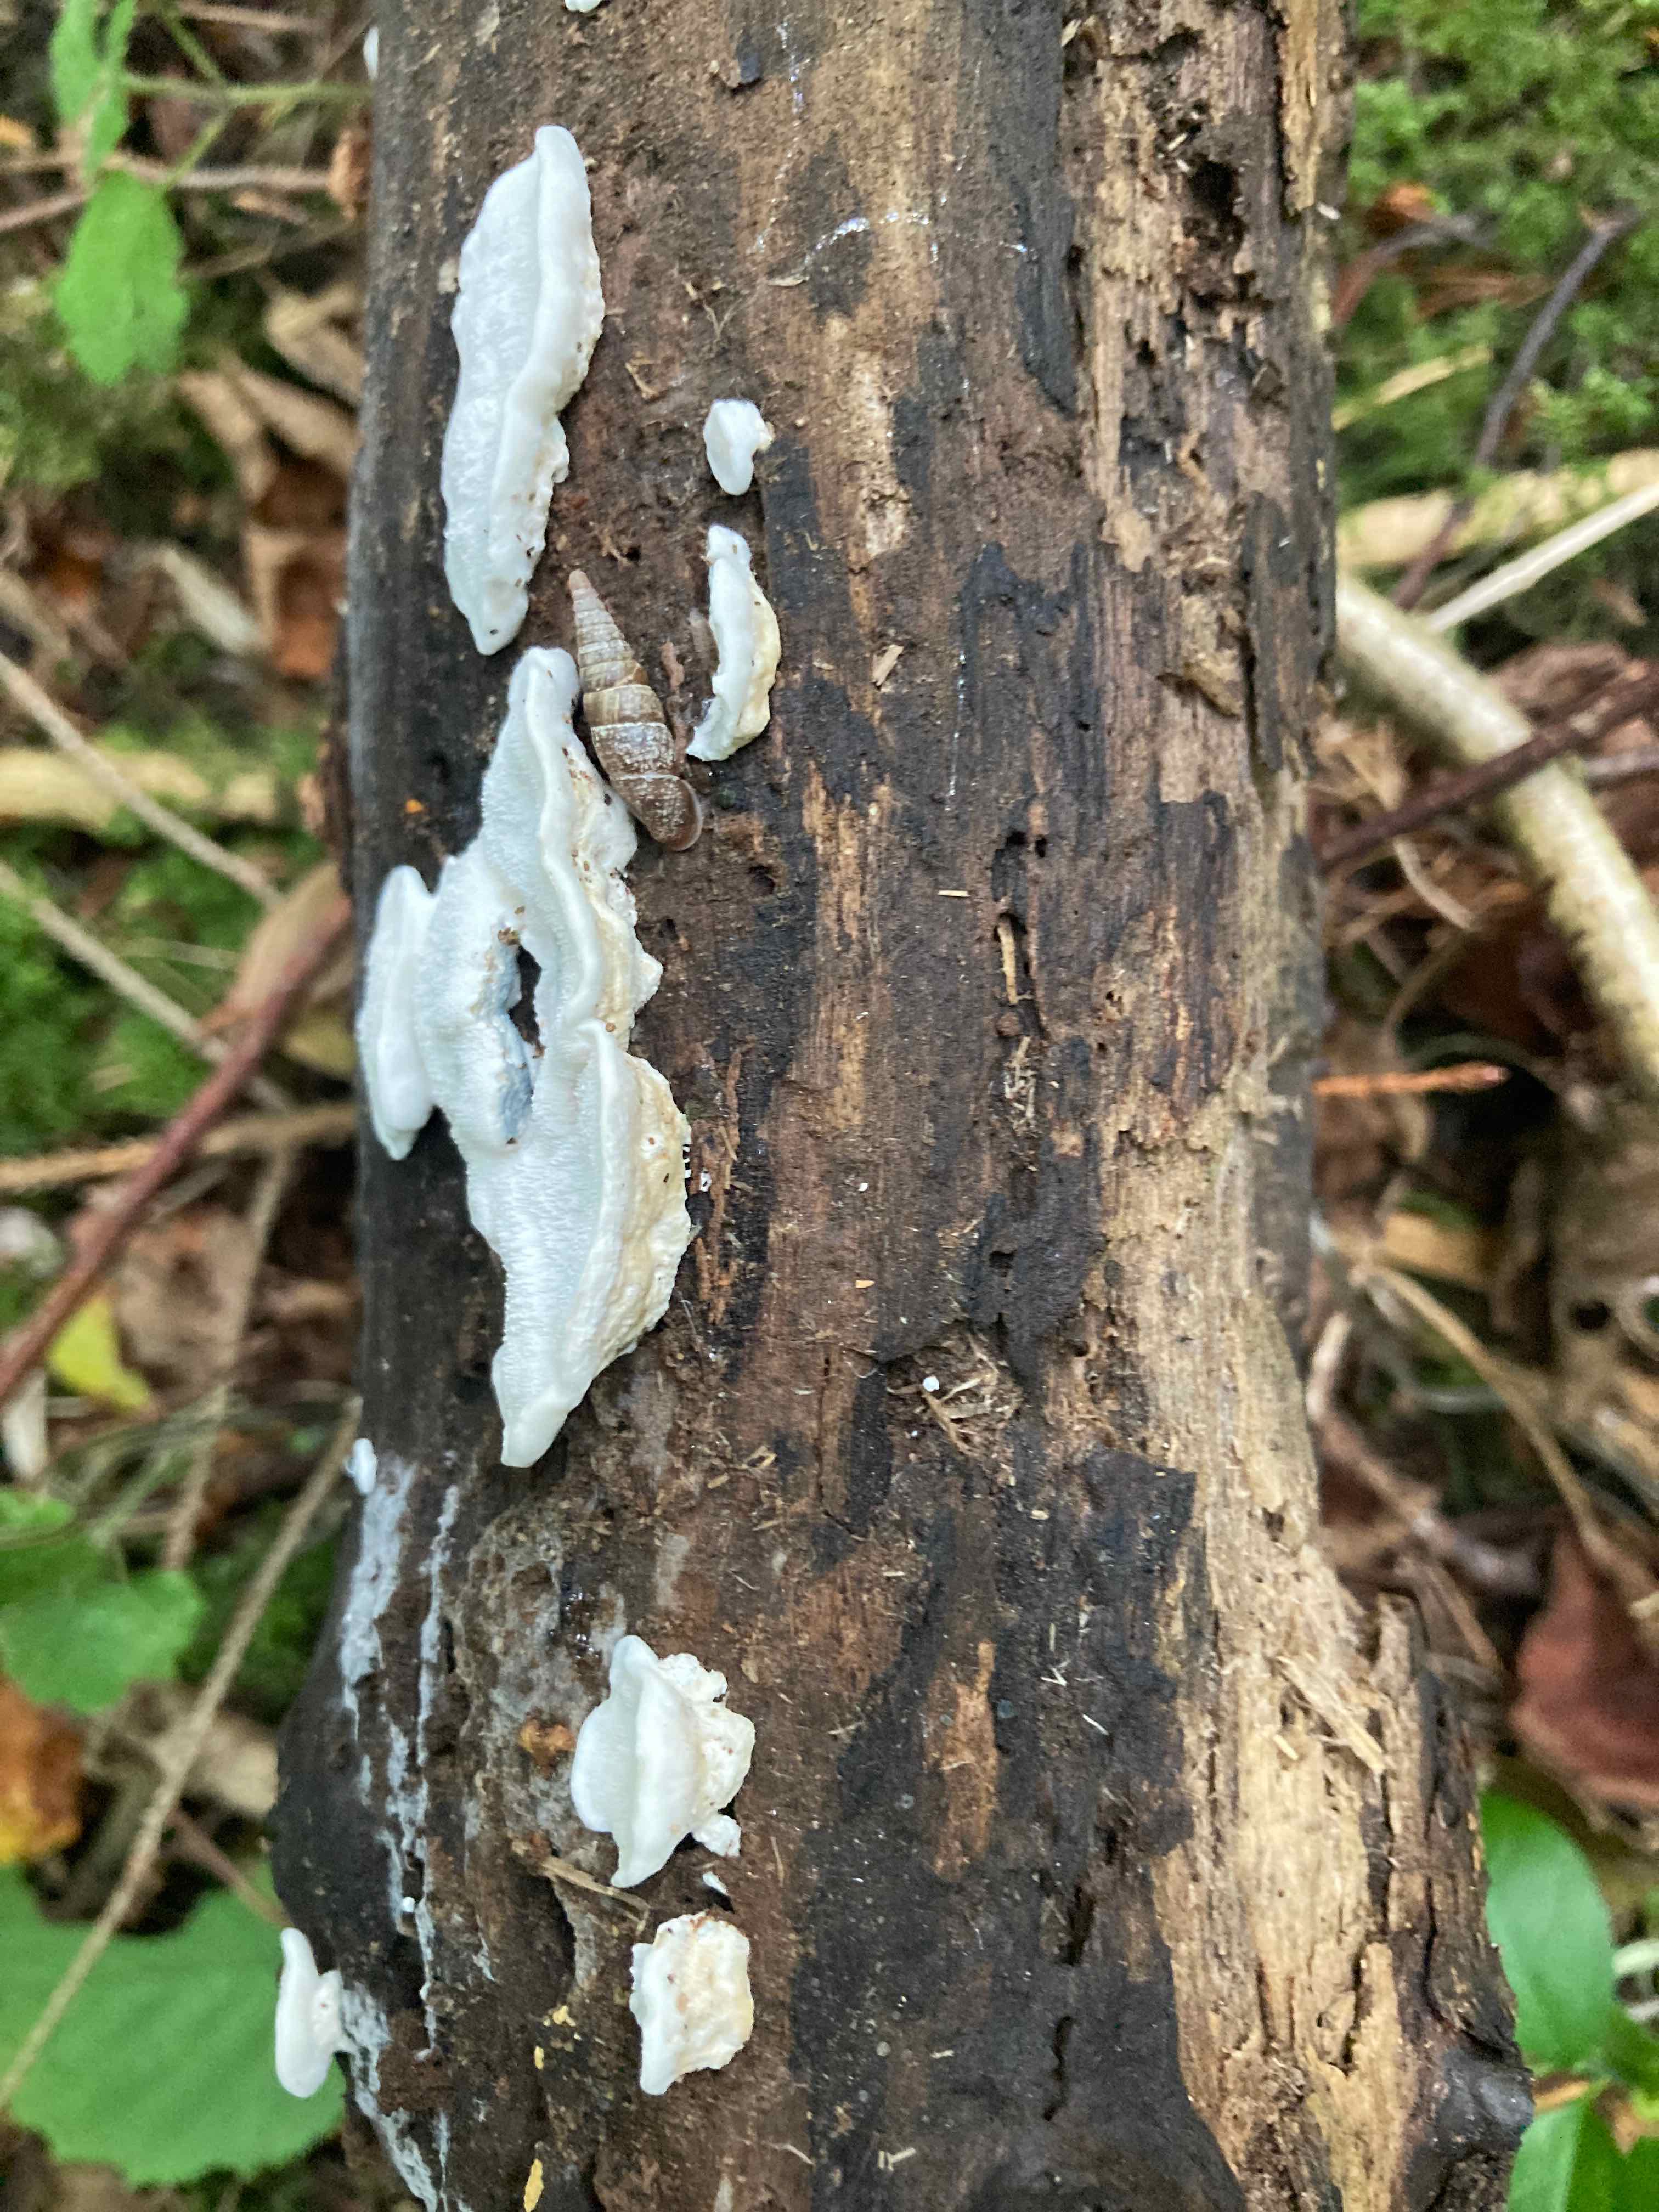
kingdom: Fungi
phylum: Basidiomycota
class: Agaricomycetes
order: Polyporales
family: Polyporaceae
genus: Cyanosporus
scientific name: Cyanosporus alni
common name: blegblå kødporesvamp
